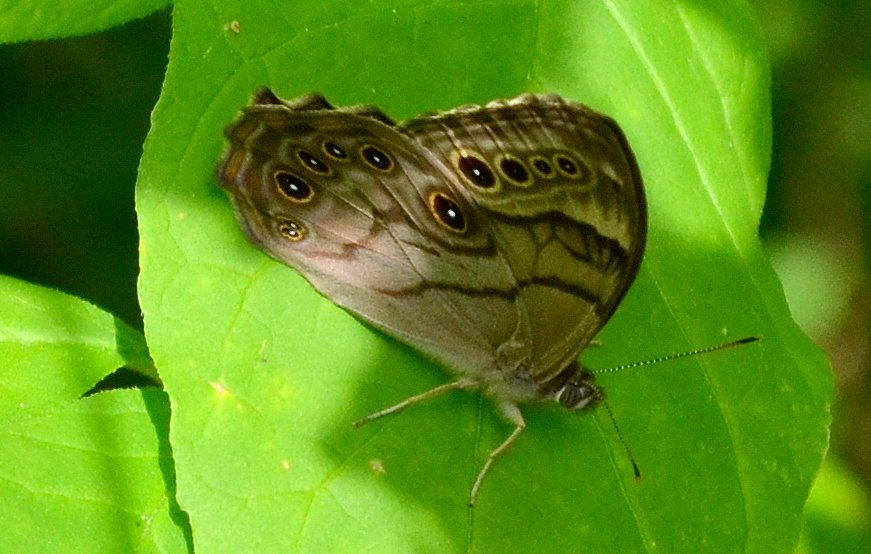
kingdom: Animalia
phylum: Arthropoda
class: Insecta
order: Lepidoptera
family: Nymphalidae
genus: Lethe
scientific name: Lethe anthedon
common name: Northern Pearly-Eye
